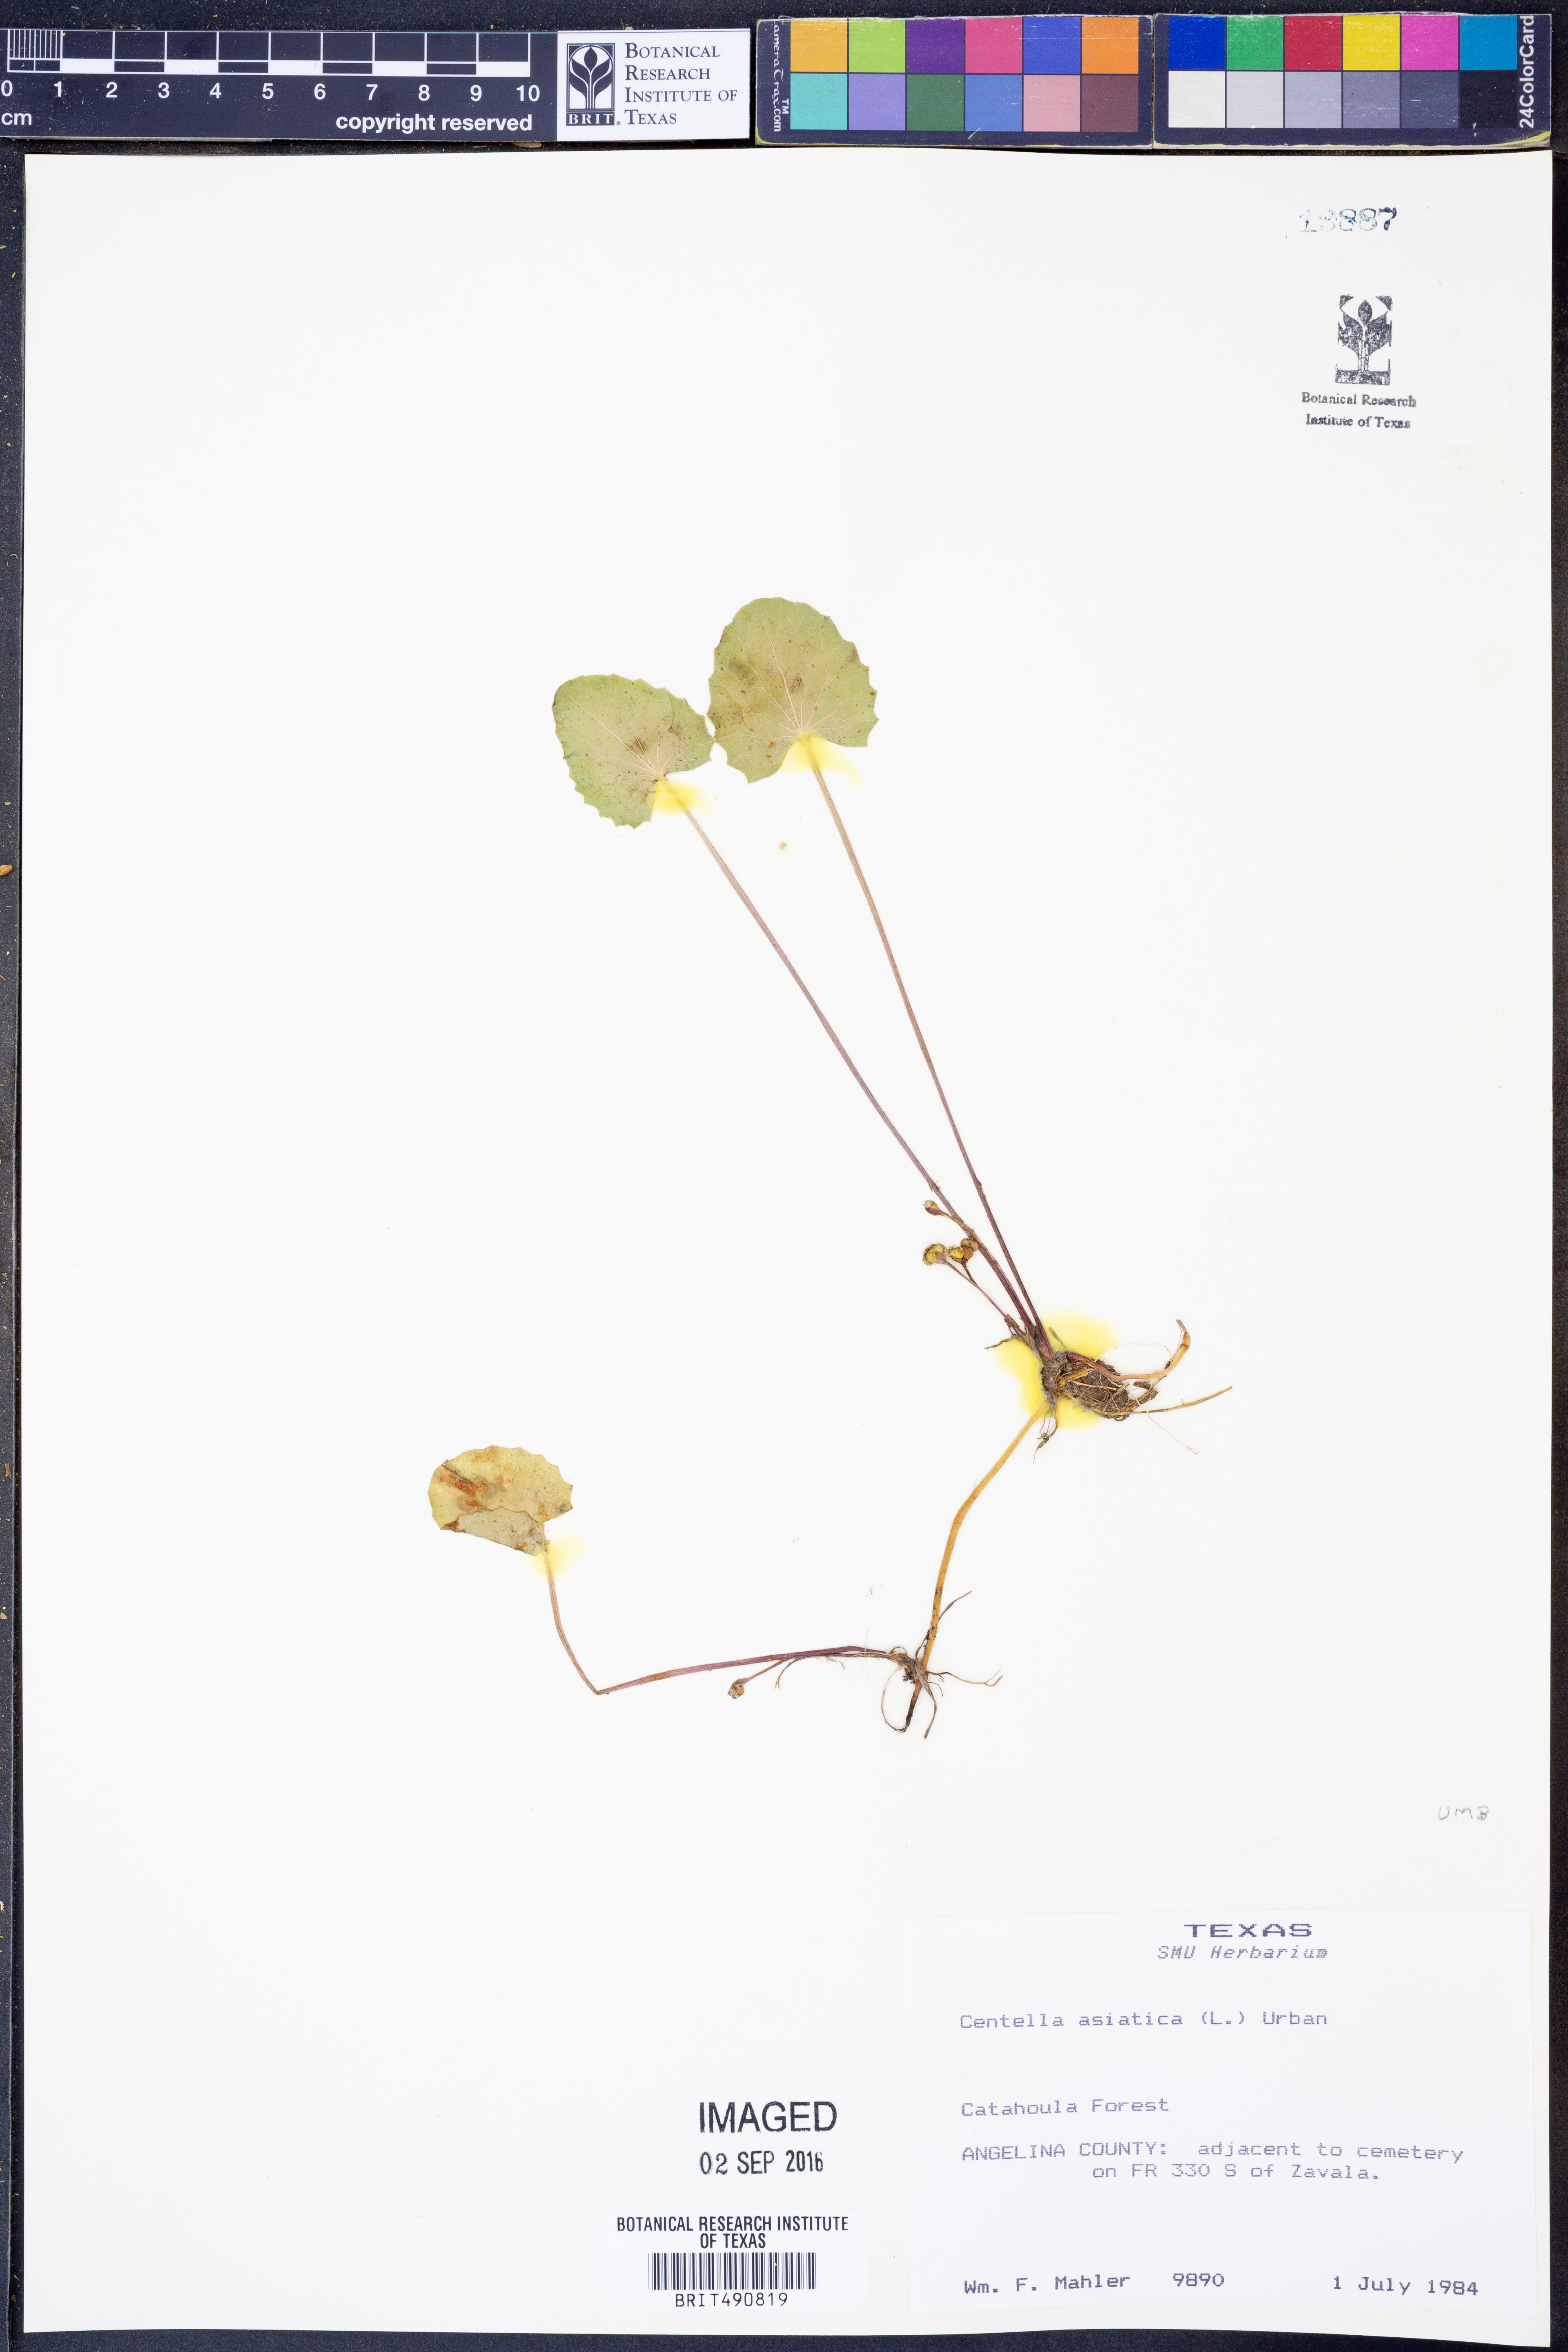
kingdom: Plantae
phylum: Tracheophyta
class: Magnoliopsida
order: Apiales
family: Apiaceae
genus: Centella
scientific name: Centella asiatica
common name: Spadeleaf
